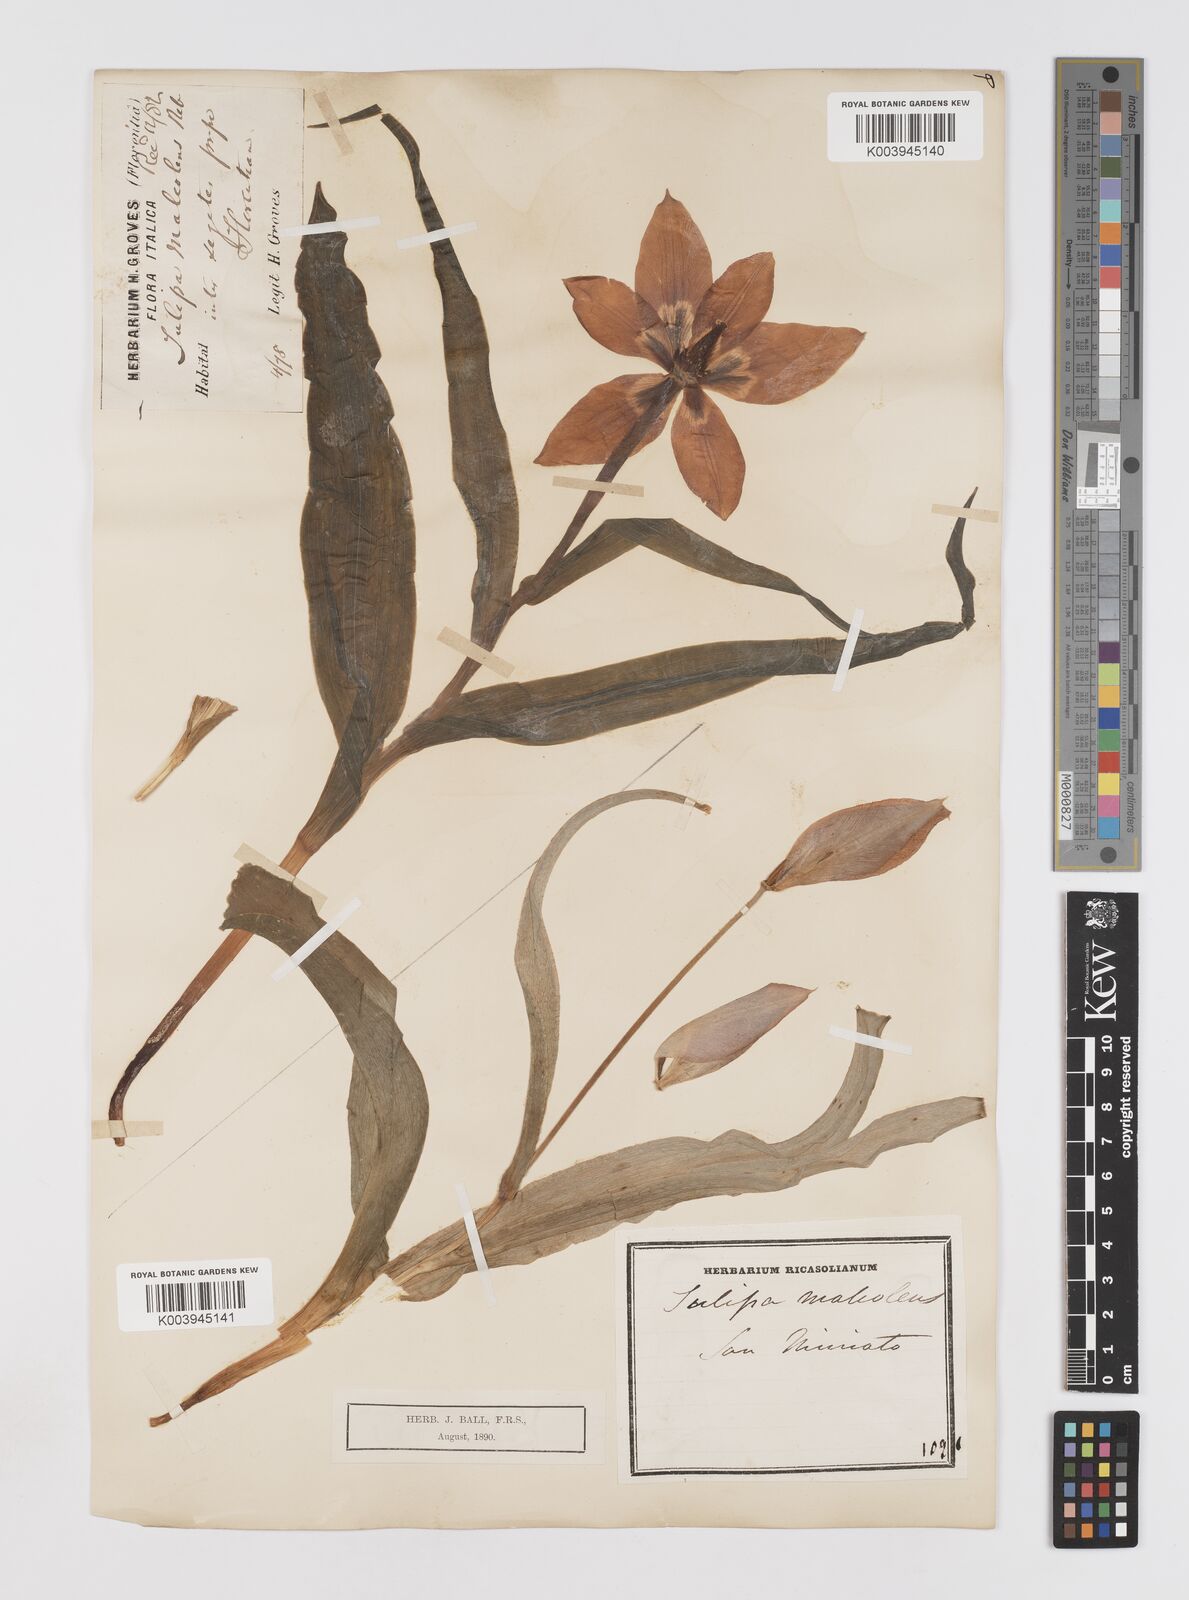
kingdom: Plantae
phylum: Tracheophyta
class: Liliopsida
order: Liliales
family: Liliaceae
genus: Tulipa
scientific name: Tulipa agenensis
